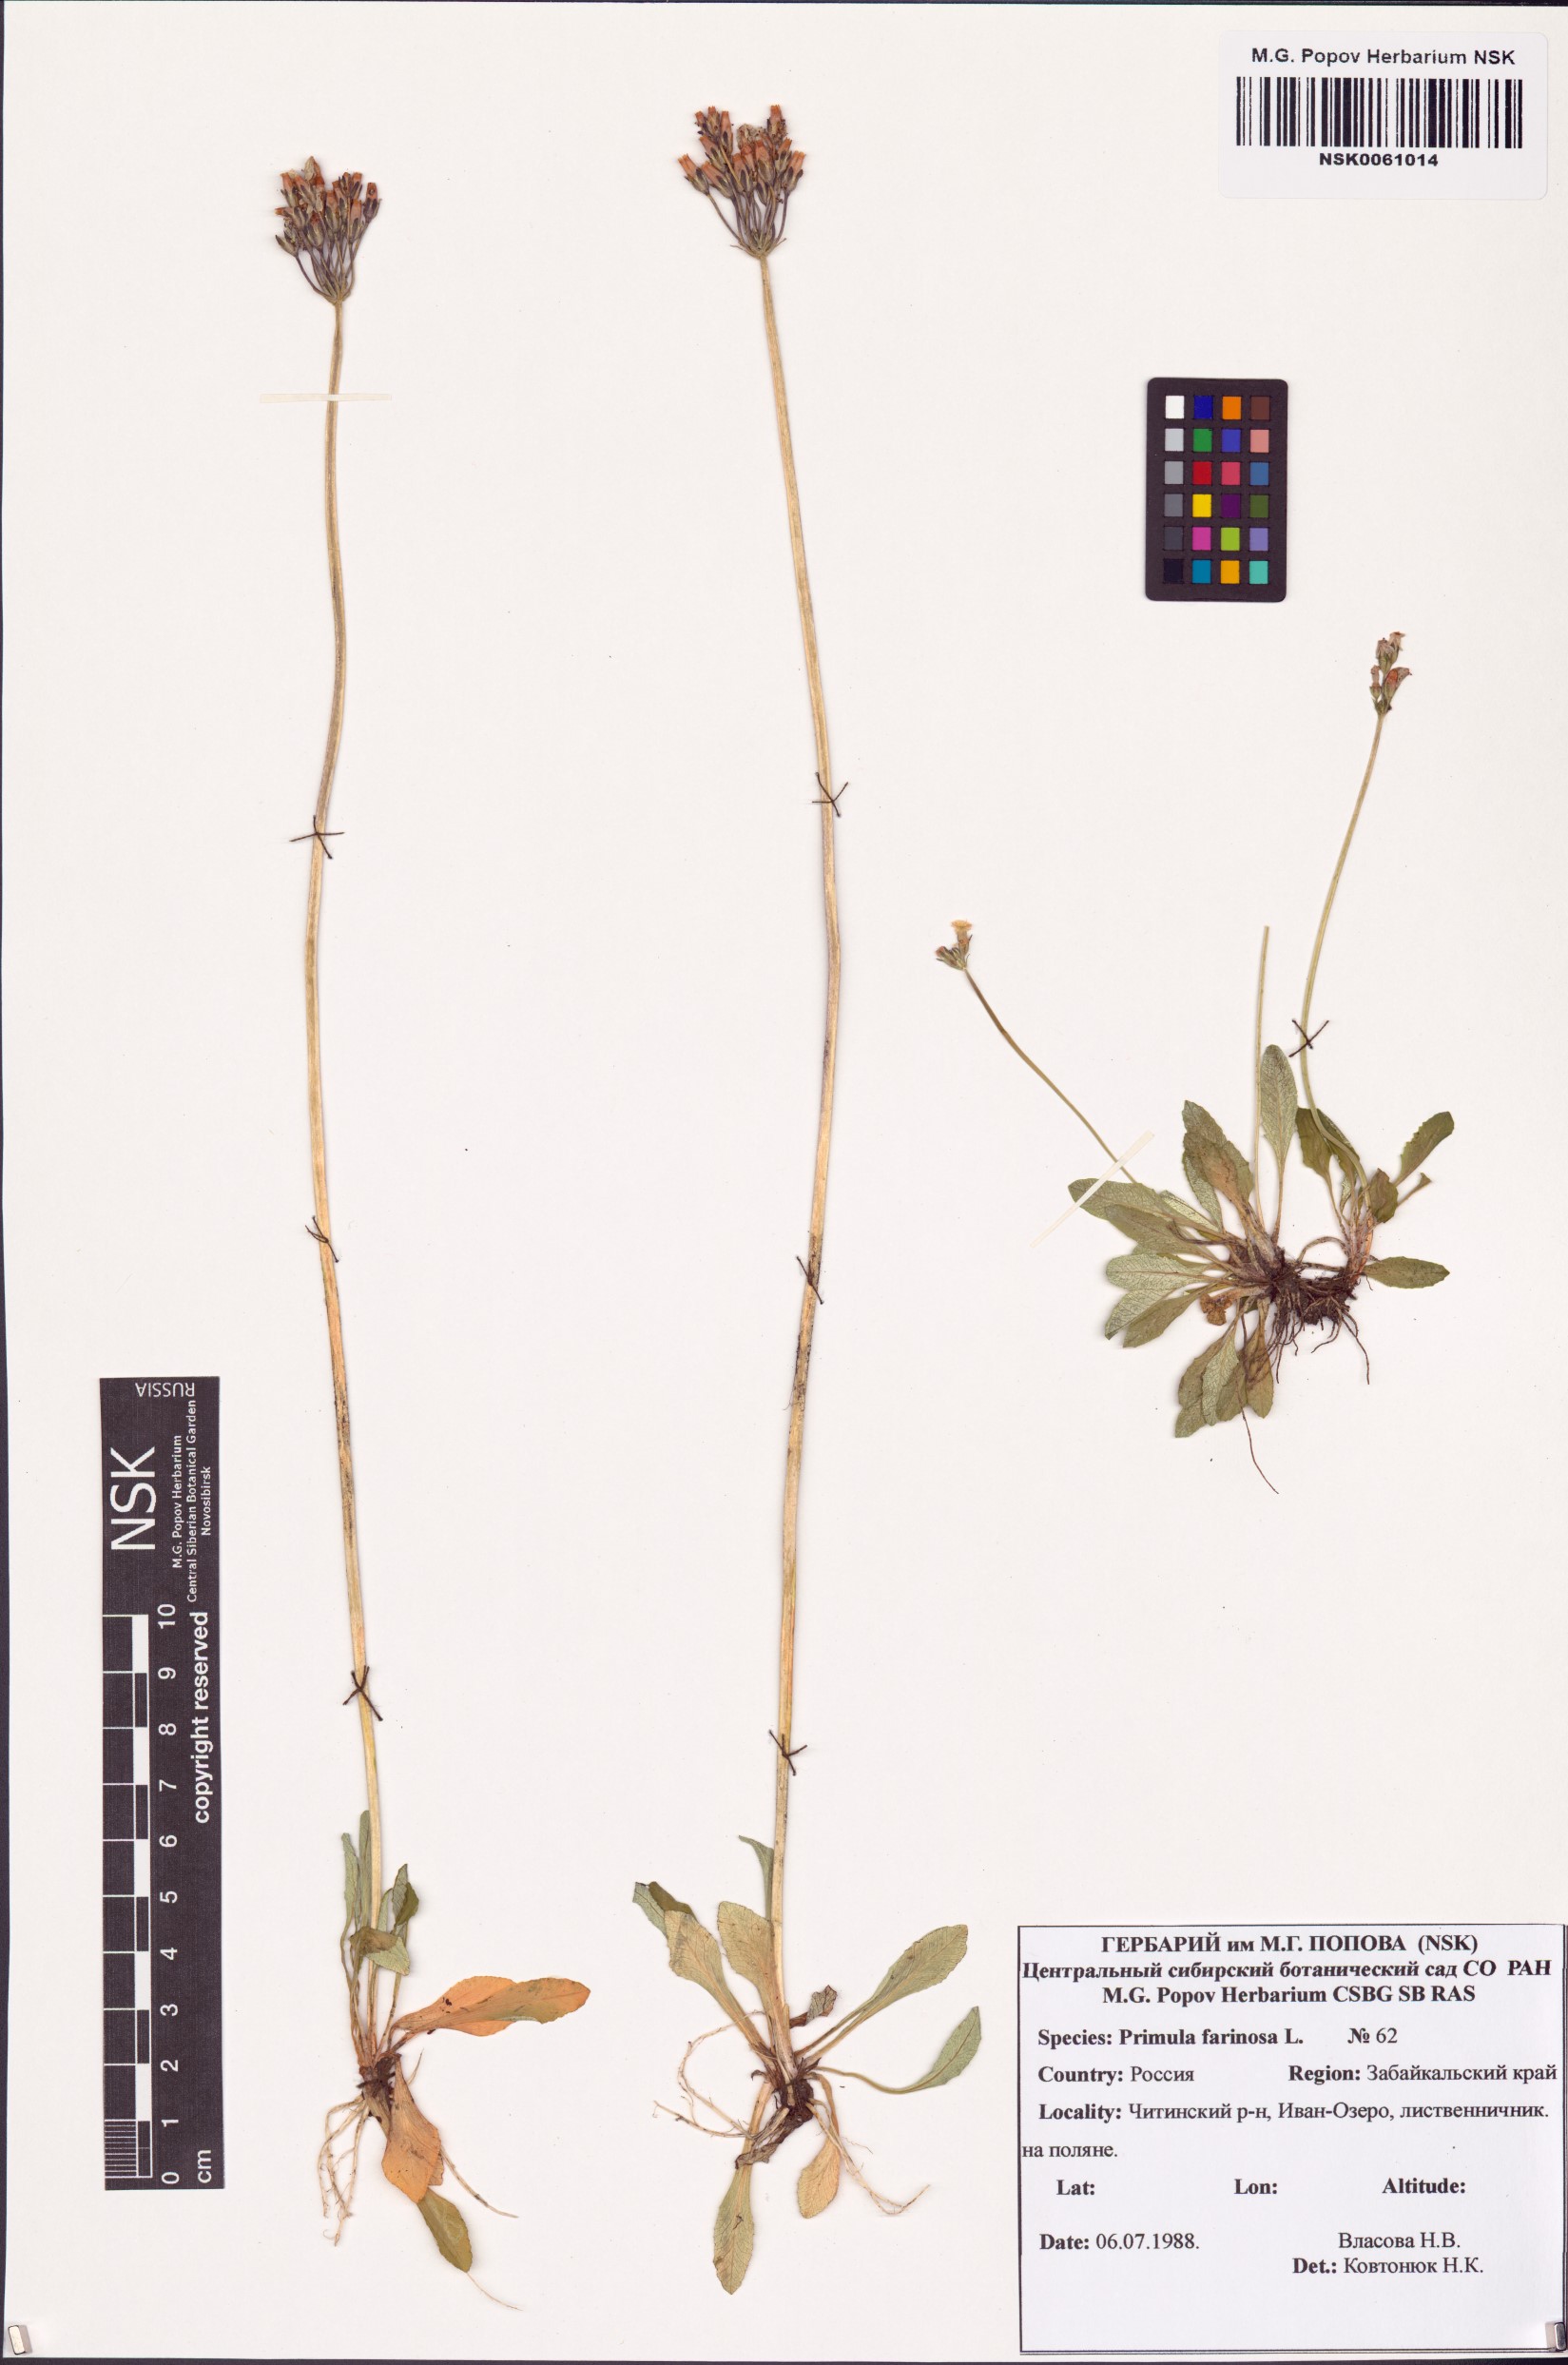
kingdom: Plantae
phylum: Tracheophyta
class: Magnoliopsida
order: Ericales
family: Primulaceae
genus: Primula
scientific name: Primula farinosa
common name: Bird's-eye primrose
